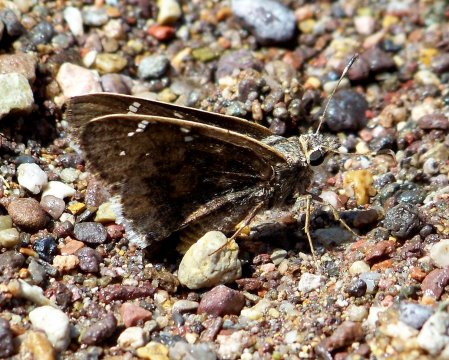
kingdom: Animalia
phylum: Arthropoda
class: Insecta
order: Lepidoptera
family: Hesperiidae
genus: Caicella
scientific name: Caicella caicus
